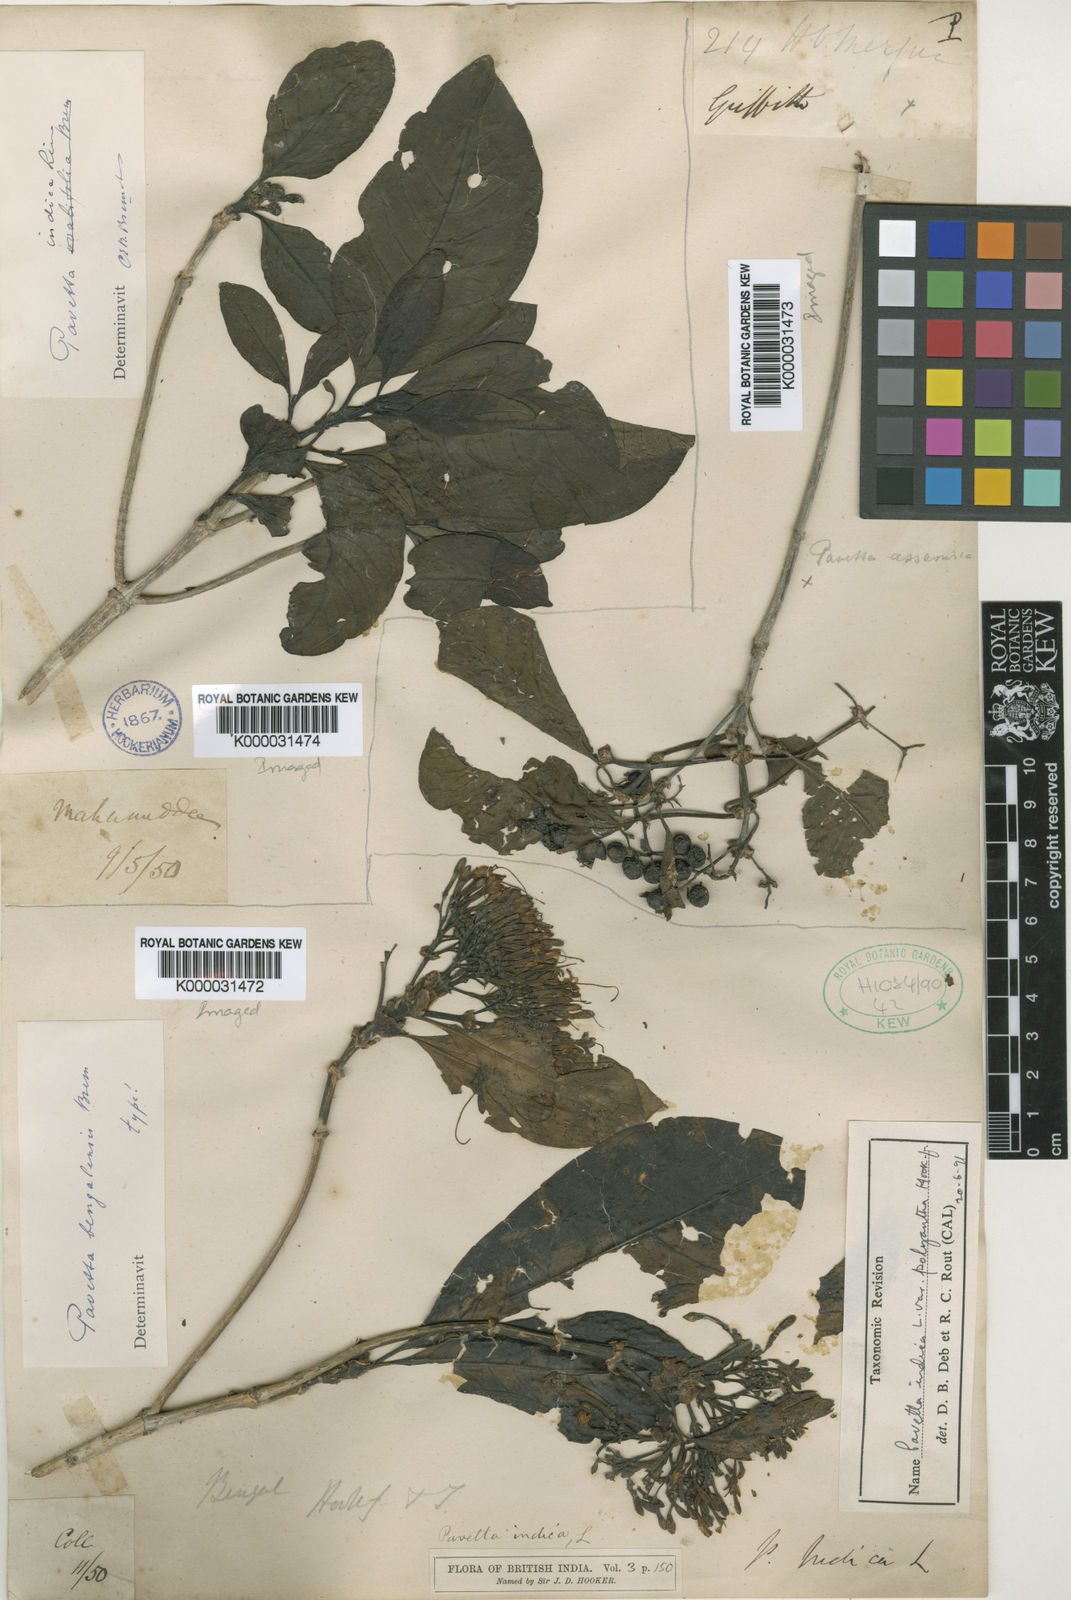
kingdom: Plantae
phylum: Tracheophyta
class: Magnoliopsida
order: Gentianales
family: Rubiaceae
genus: Pavetta
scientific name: Pavetta tomentosa
